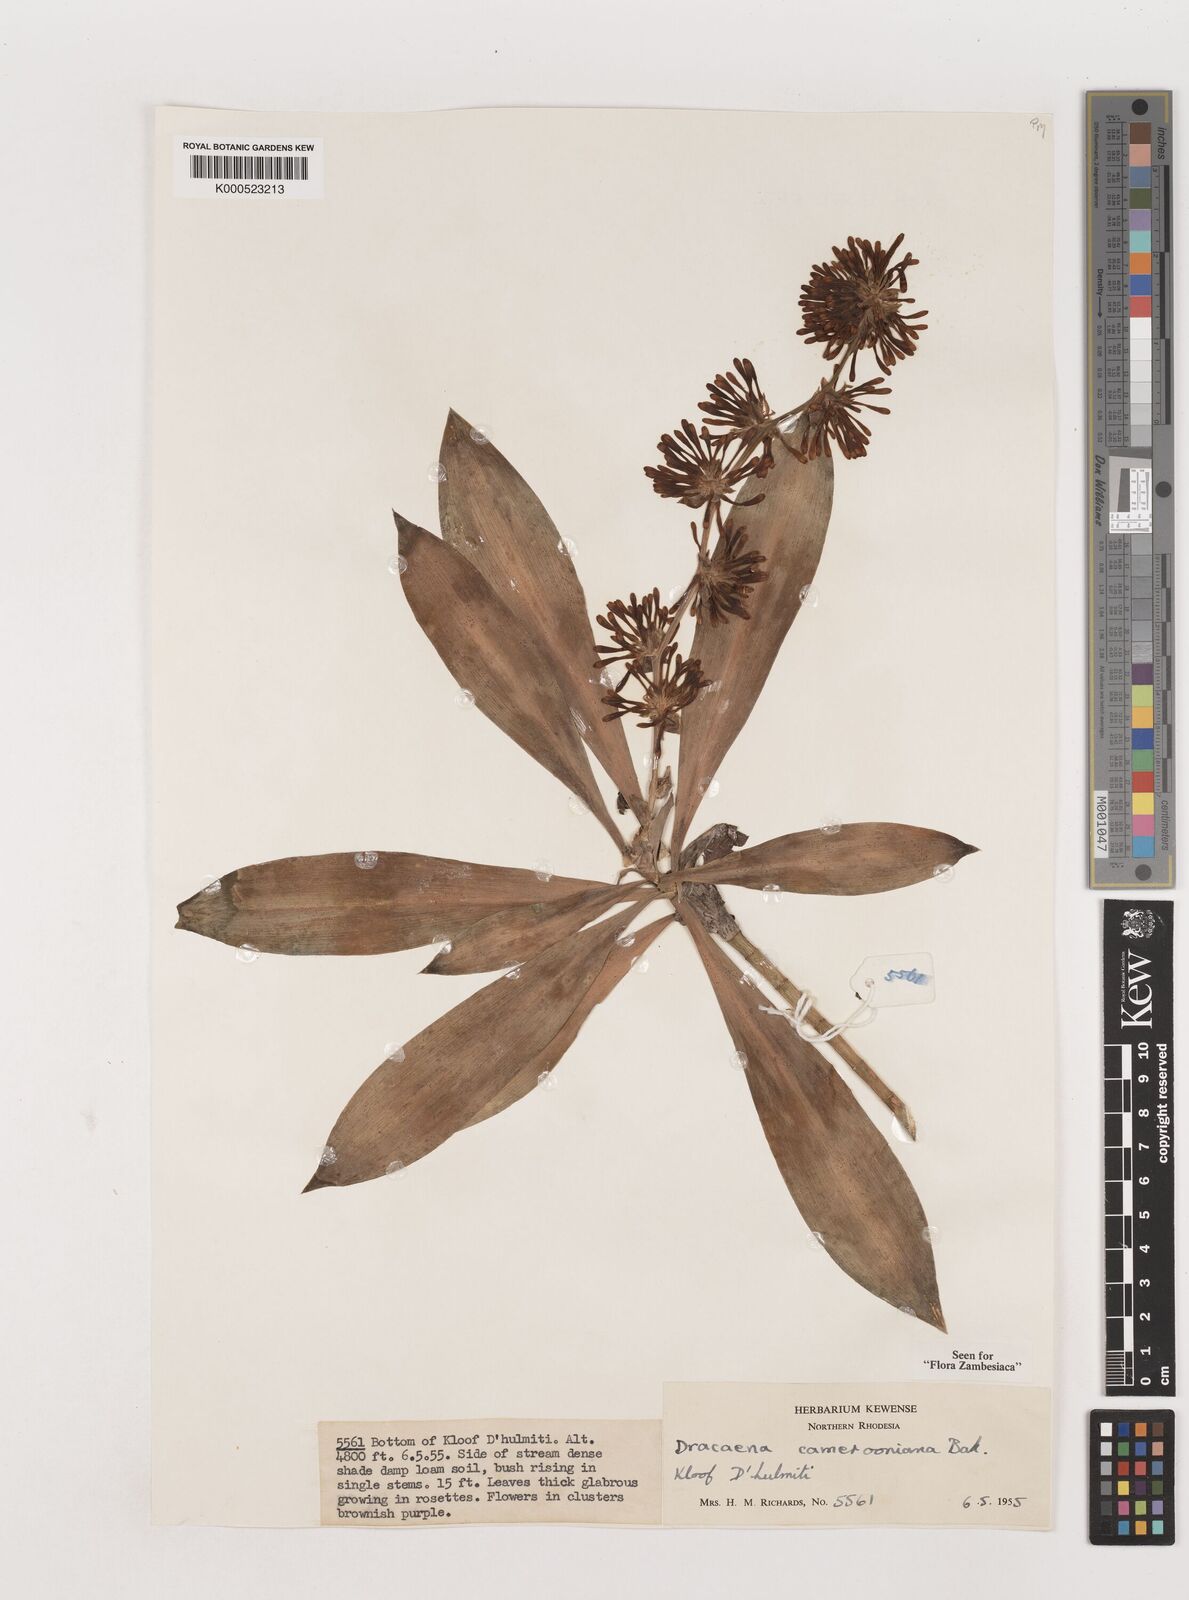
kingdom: Plantae
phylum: Tracheophyta
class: Liliopsida
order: Asparagales
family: Asparagaceae
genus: Dracaena
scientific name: Dracaena camerooniana
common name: Dragon tree
